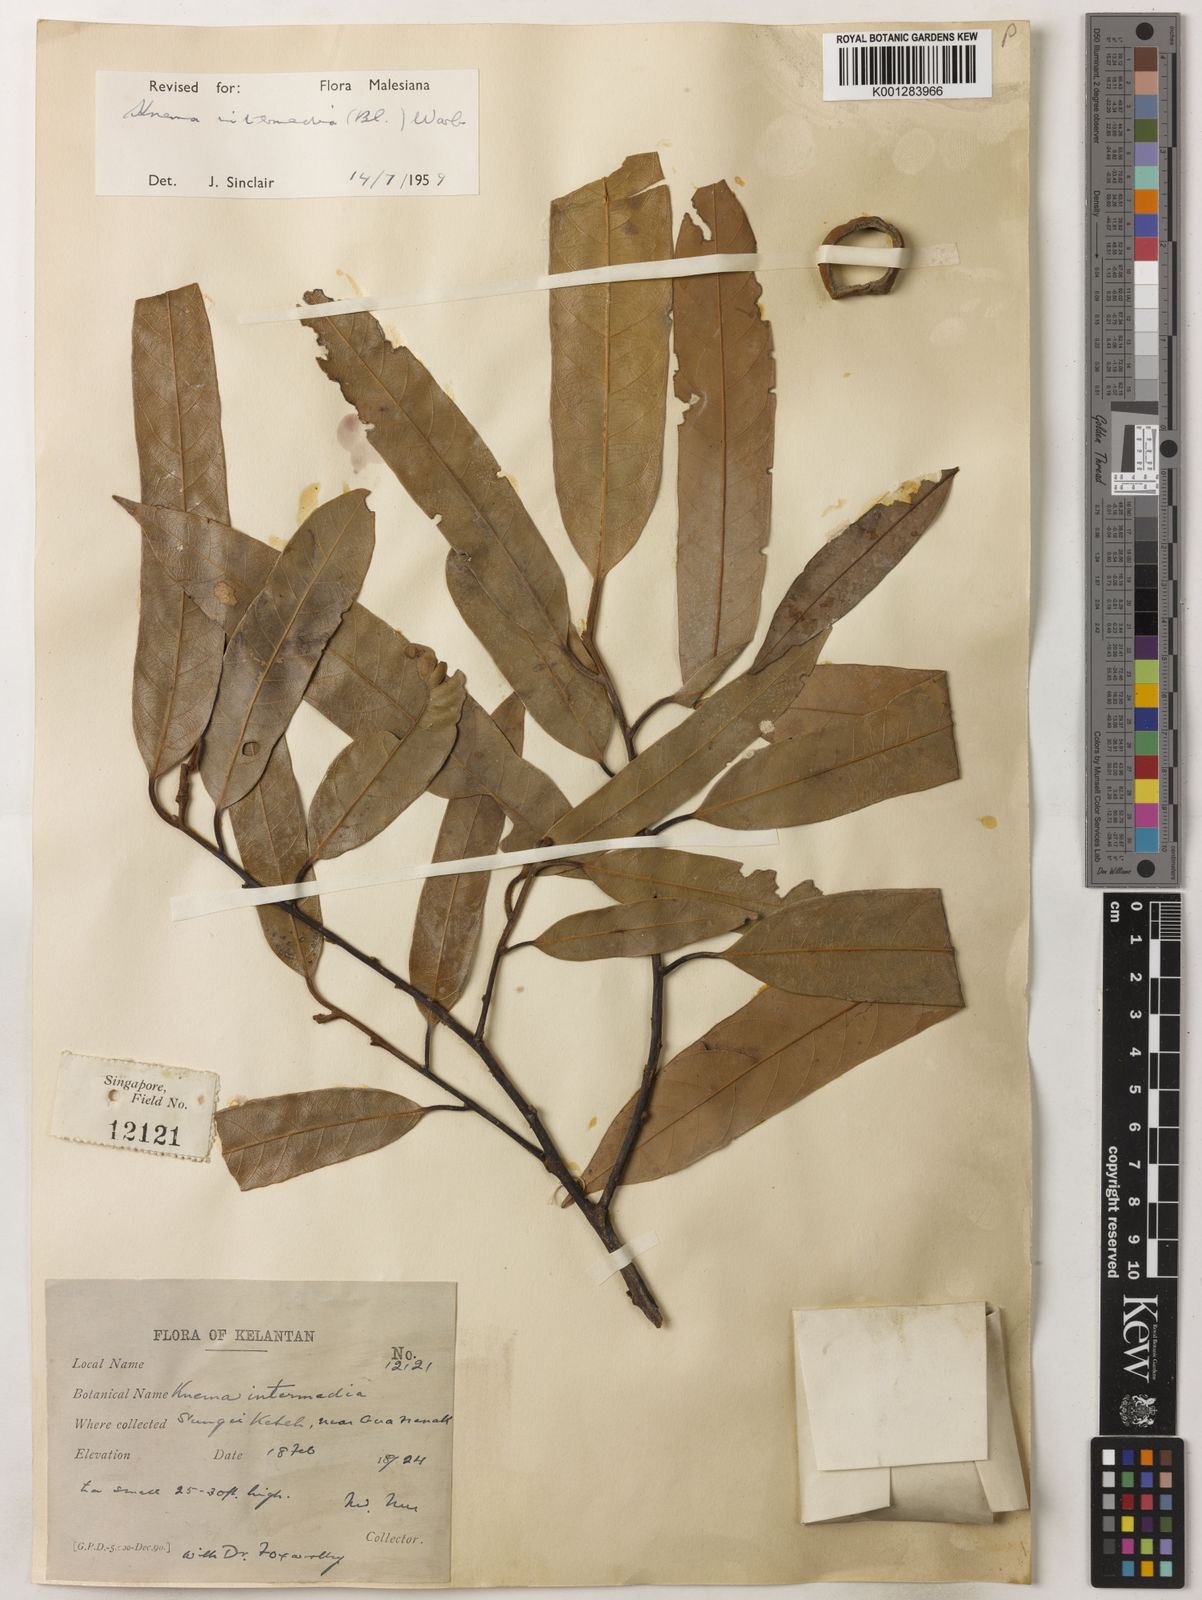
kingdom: Plantae
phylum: Tracheophyta
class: Magnoliopsida
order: Magnoliales
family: Myristicaceae
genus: Knema
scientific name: Knema intermedia
